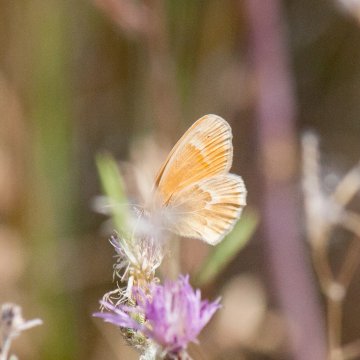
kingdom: Animalia
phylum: Arthropoda
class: Insecta
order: Lepidoptera
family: Nymphalidae
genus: Coenonympha
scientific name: Coenonympha tullia
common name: Large Heath
